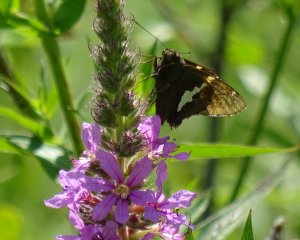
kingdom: Animalia
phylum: Arthropoda
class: Insecta
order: Lepidoptera
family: Hesperiidae
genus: Epargyreus
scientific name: Epargyreus clarus
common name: Silver-spotted Skipper
